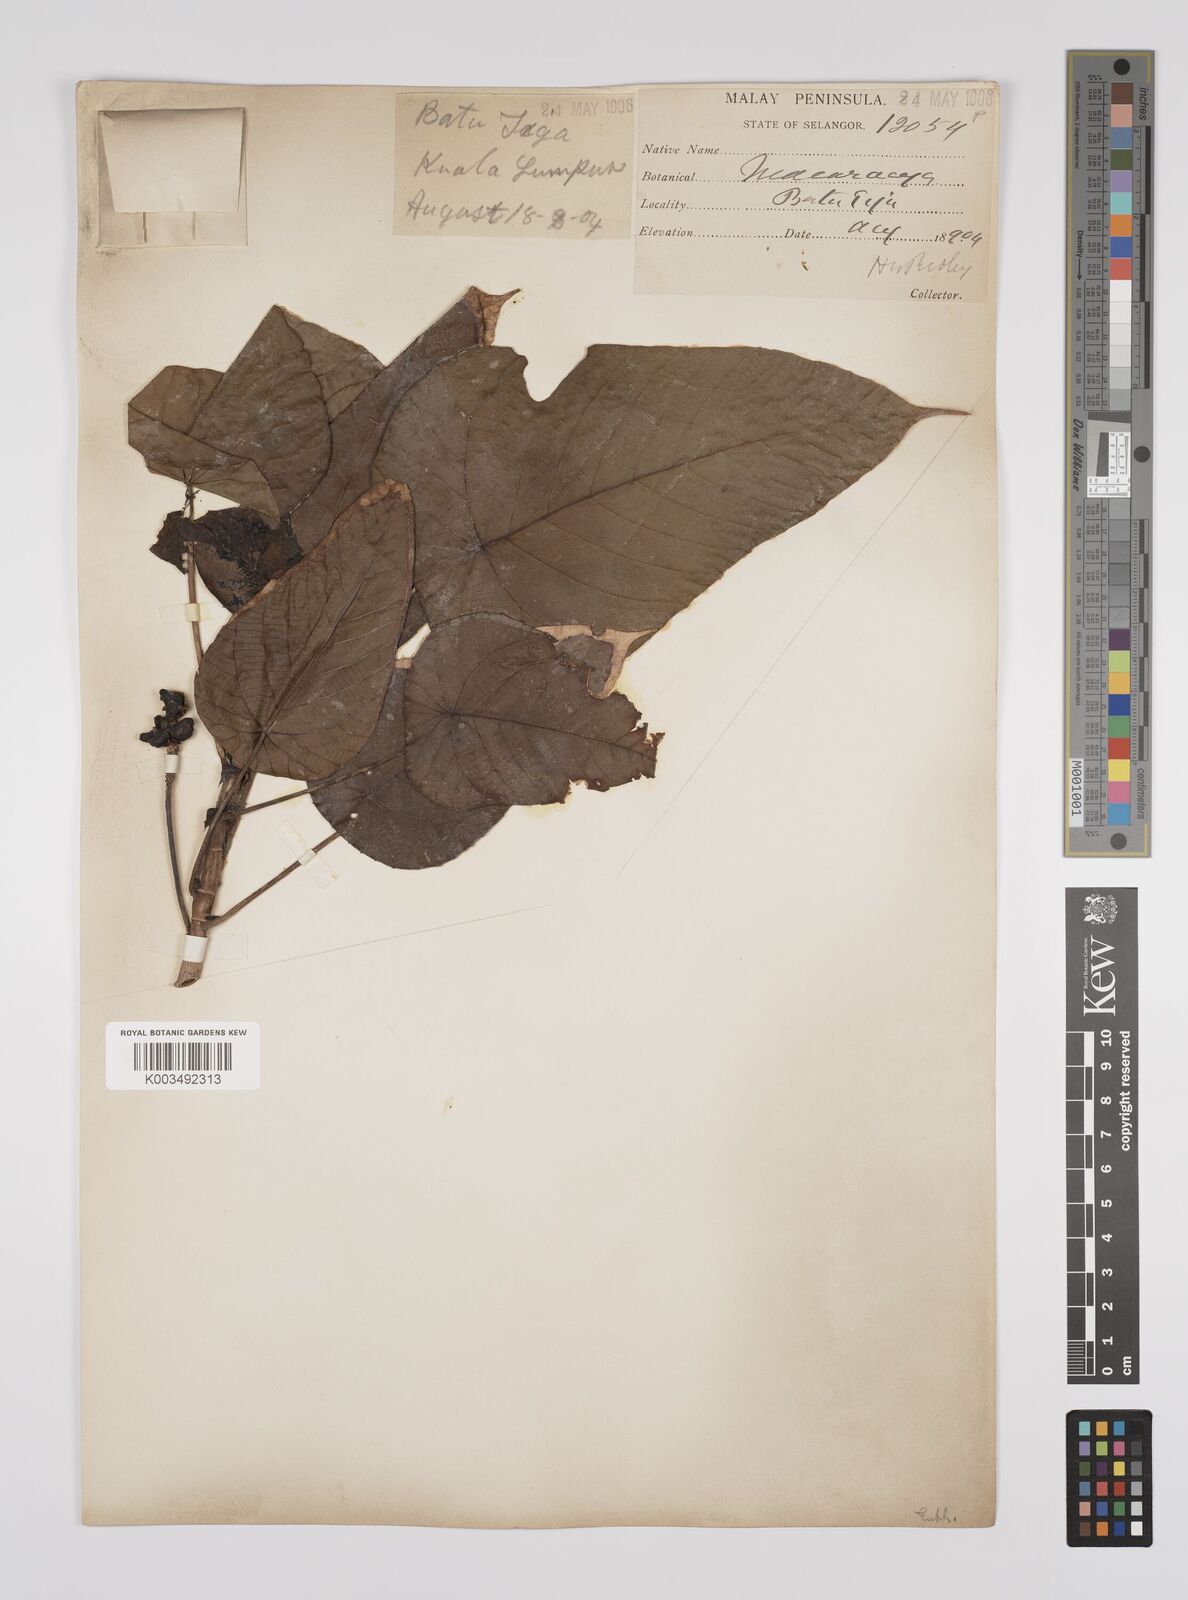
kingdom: Plantae
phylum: Tracheophyta
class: Magnoliopsida
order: Malpighiales
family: Euphorbiaceae
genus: Macaranga
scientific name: Macaranga hullettii
